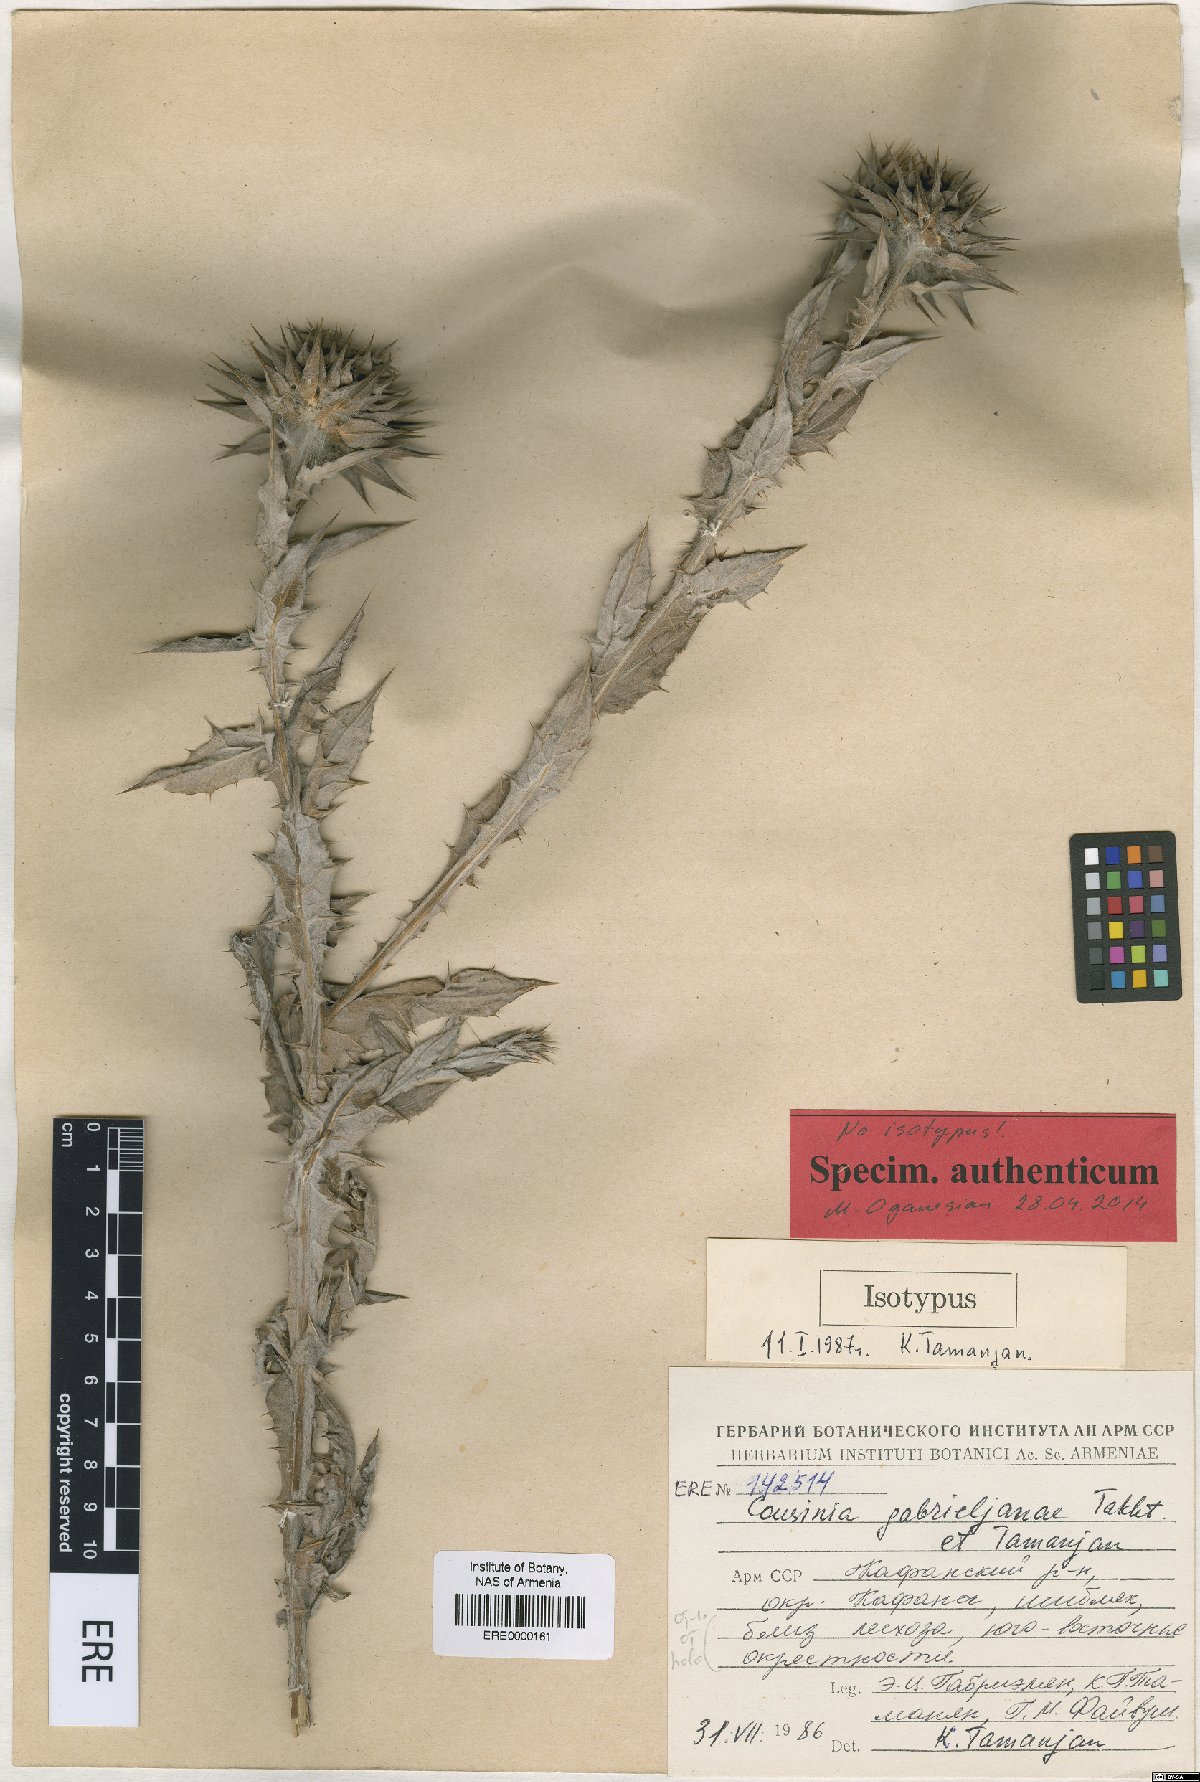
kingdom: Plantae
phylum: Tracheophyta
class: Magnoliopsida
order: Asterales
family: Asteraceae
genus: Cousinia
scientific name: Cousinia macrocephala
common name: Macrocephalous cousinia
